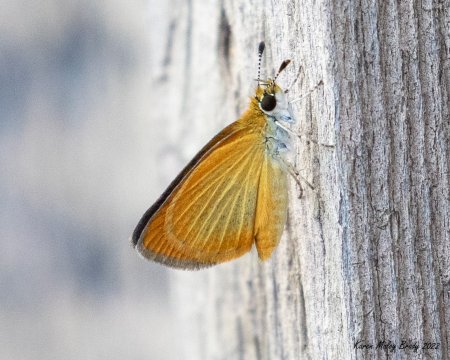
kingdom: Animalia
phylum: Arthropoda
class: Insecta
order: Lepidoptera
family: Hesperiidae
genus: Ancyloxypha
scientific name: Ancyloxypha numitor
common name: Least Skipper
